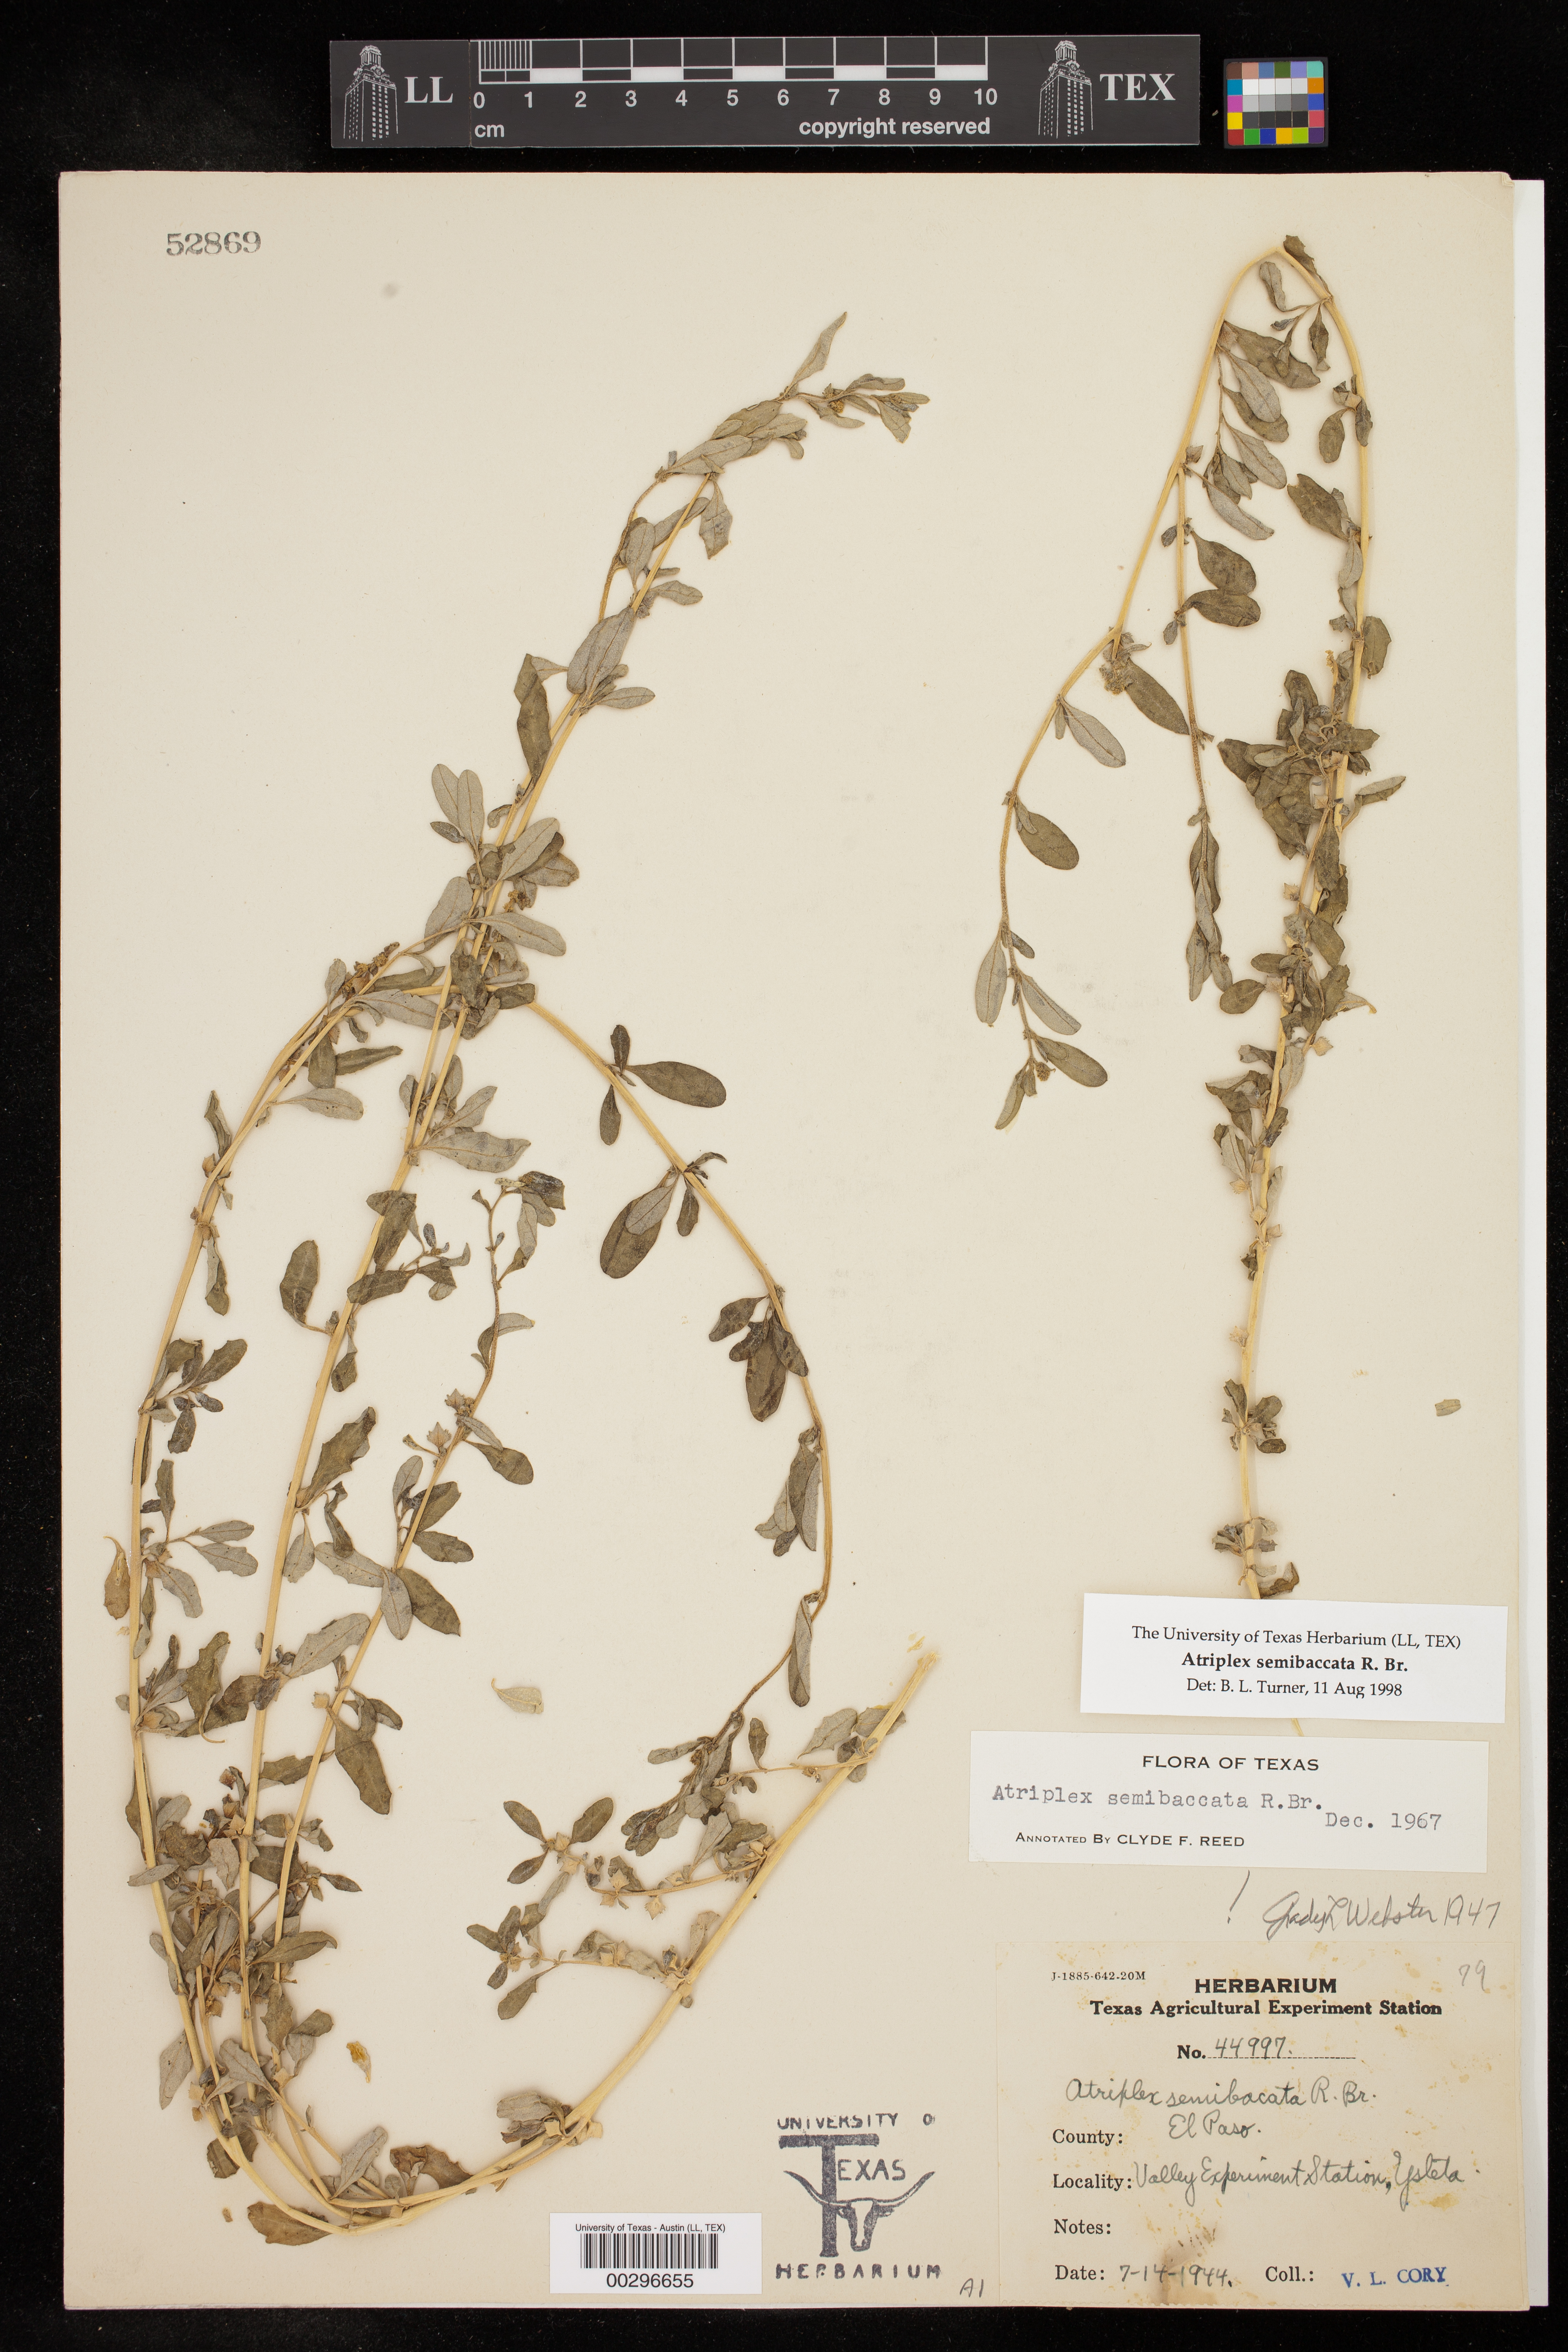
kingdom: Plantae
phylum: Tracheophyta
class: Magnoliopsida
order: Caryophyllales
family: Amaranthaceae
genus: Atriplex
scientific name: Atriplex semibaccata
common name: Australian saltbush
